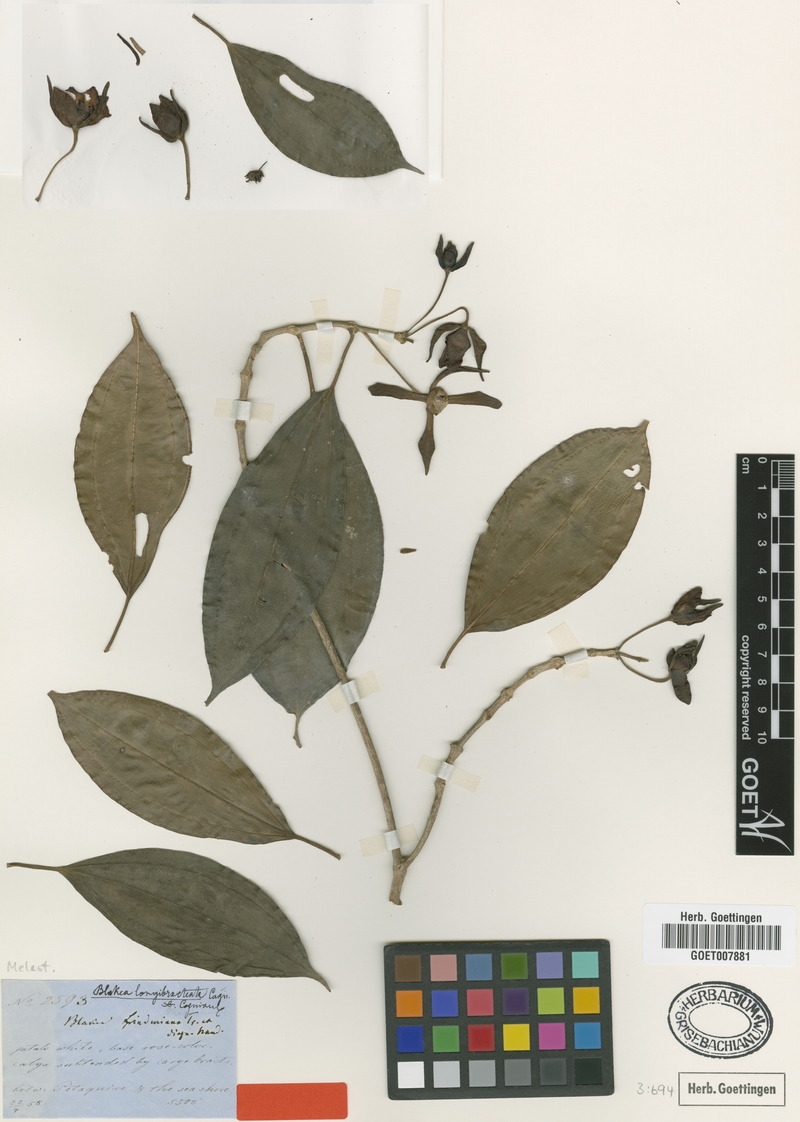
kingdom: Plantae
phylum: Tracheophyta
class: Magnoliopsida
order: Myrtales
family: Melastomataceae
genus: Blakea
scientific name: Blakea longibracteata
